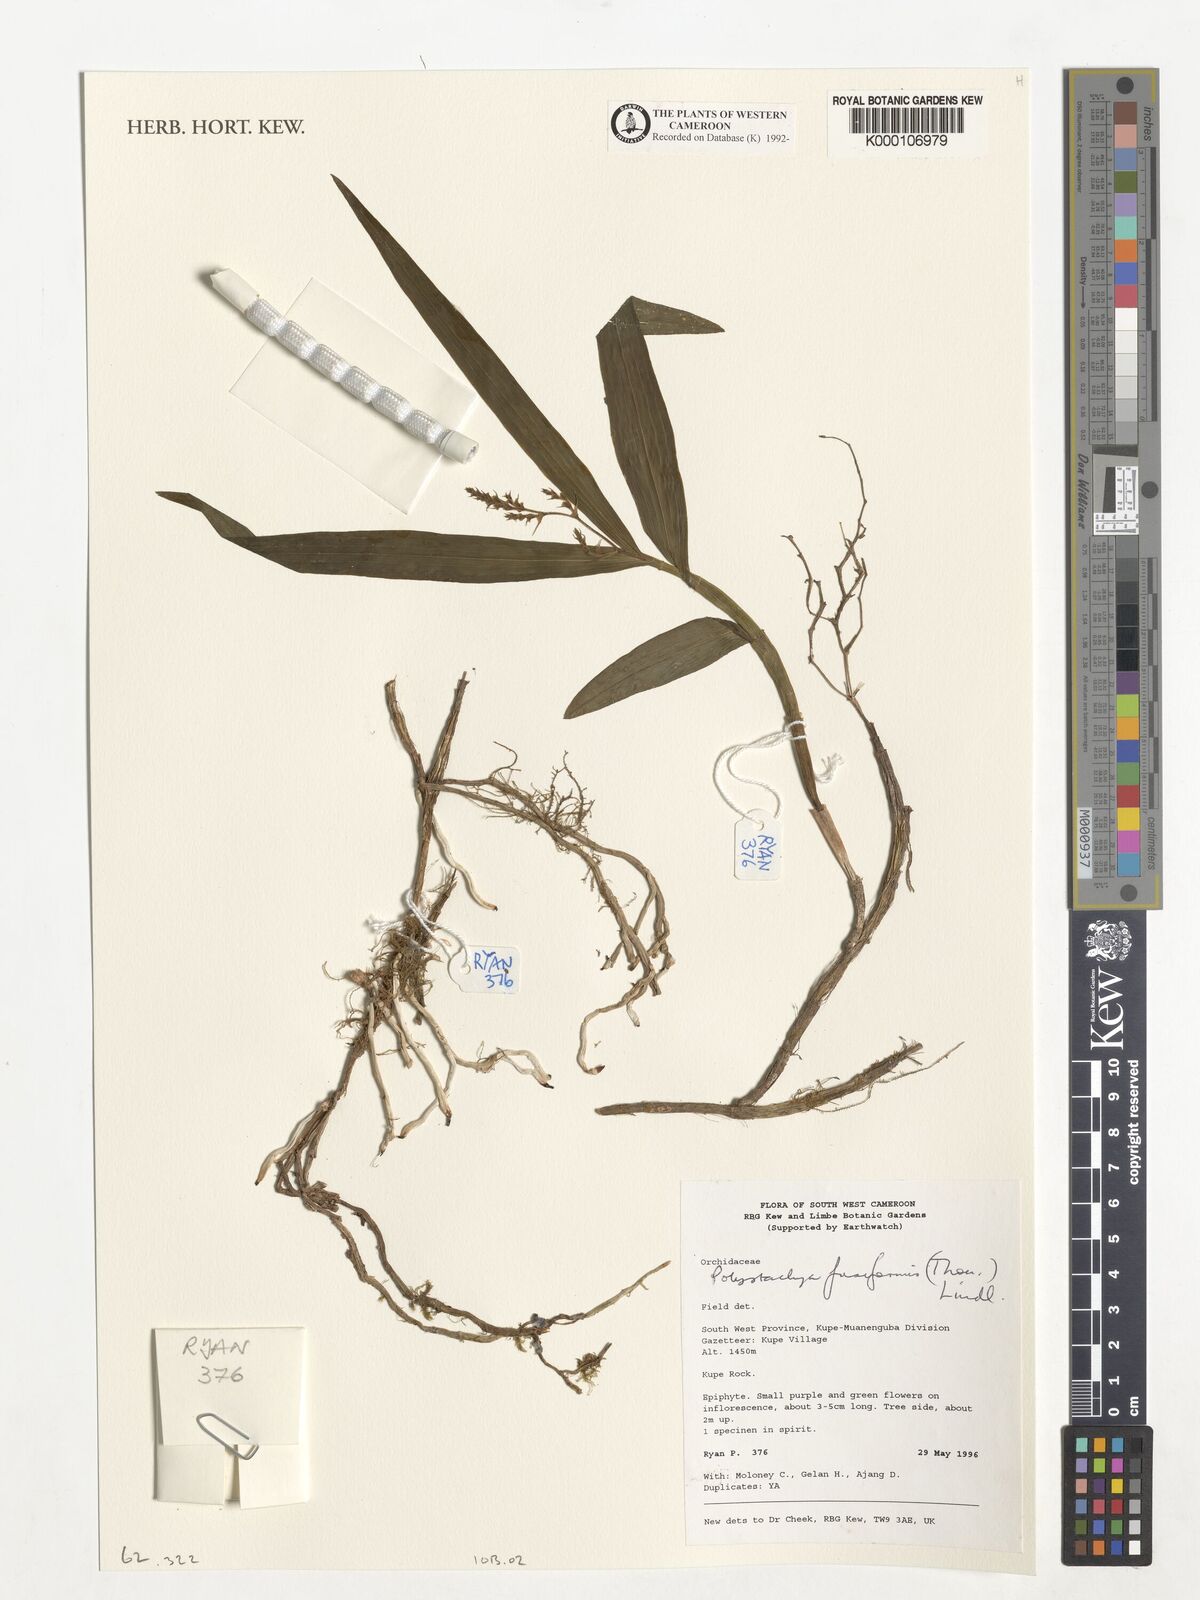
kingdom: Plantae
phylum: Tracheophyta
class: Liliopsida
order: Asparagales
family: Orchidaceae
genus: Polystachya
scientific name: Polystachya fusiformis
